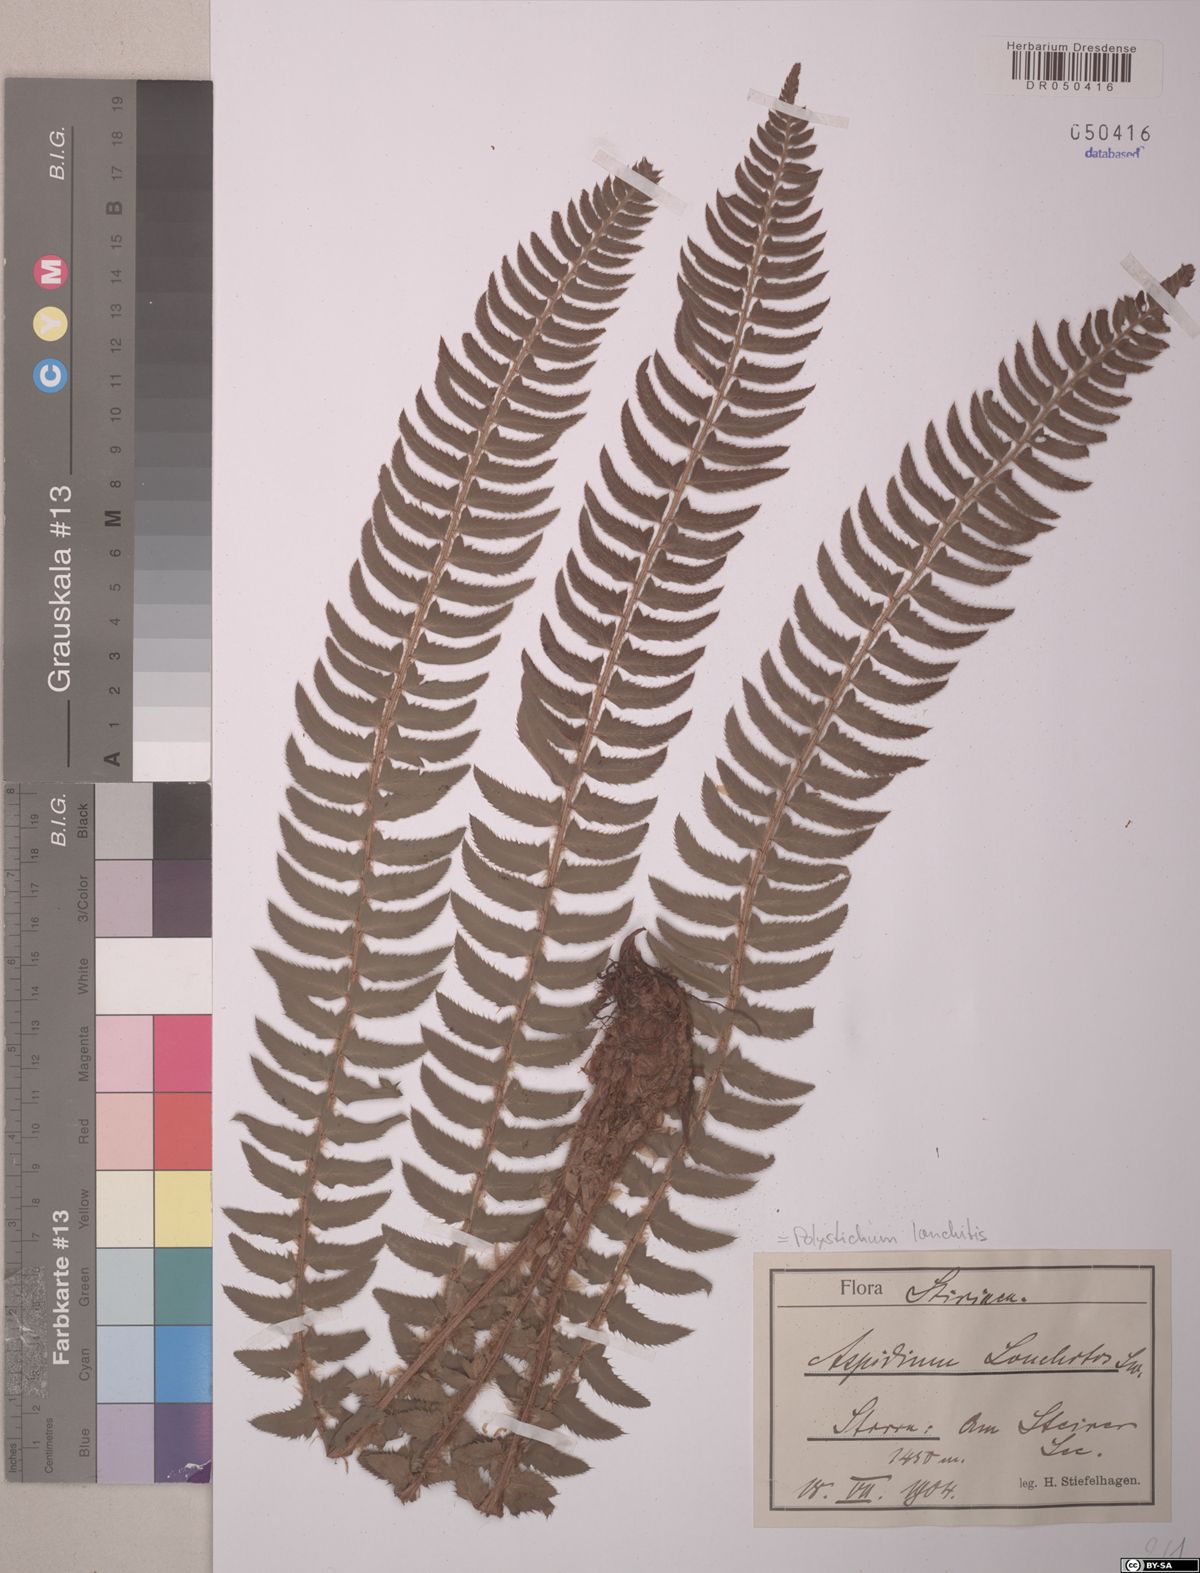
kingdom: Plantae
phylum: Tracheophyta
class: Polypodiopsida
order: Polypodiales
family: Dryopteridaceae
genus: Polystichum
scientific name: Polystichum lonchitis
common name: Holly fern
